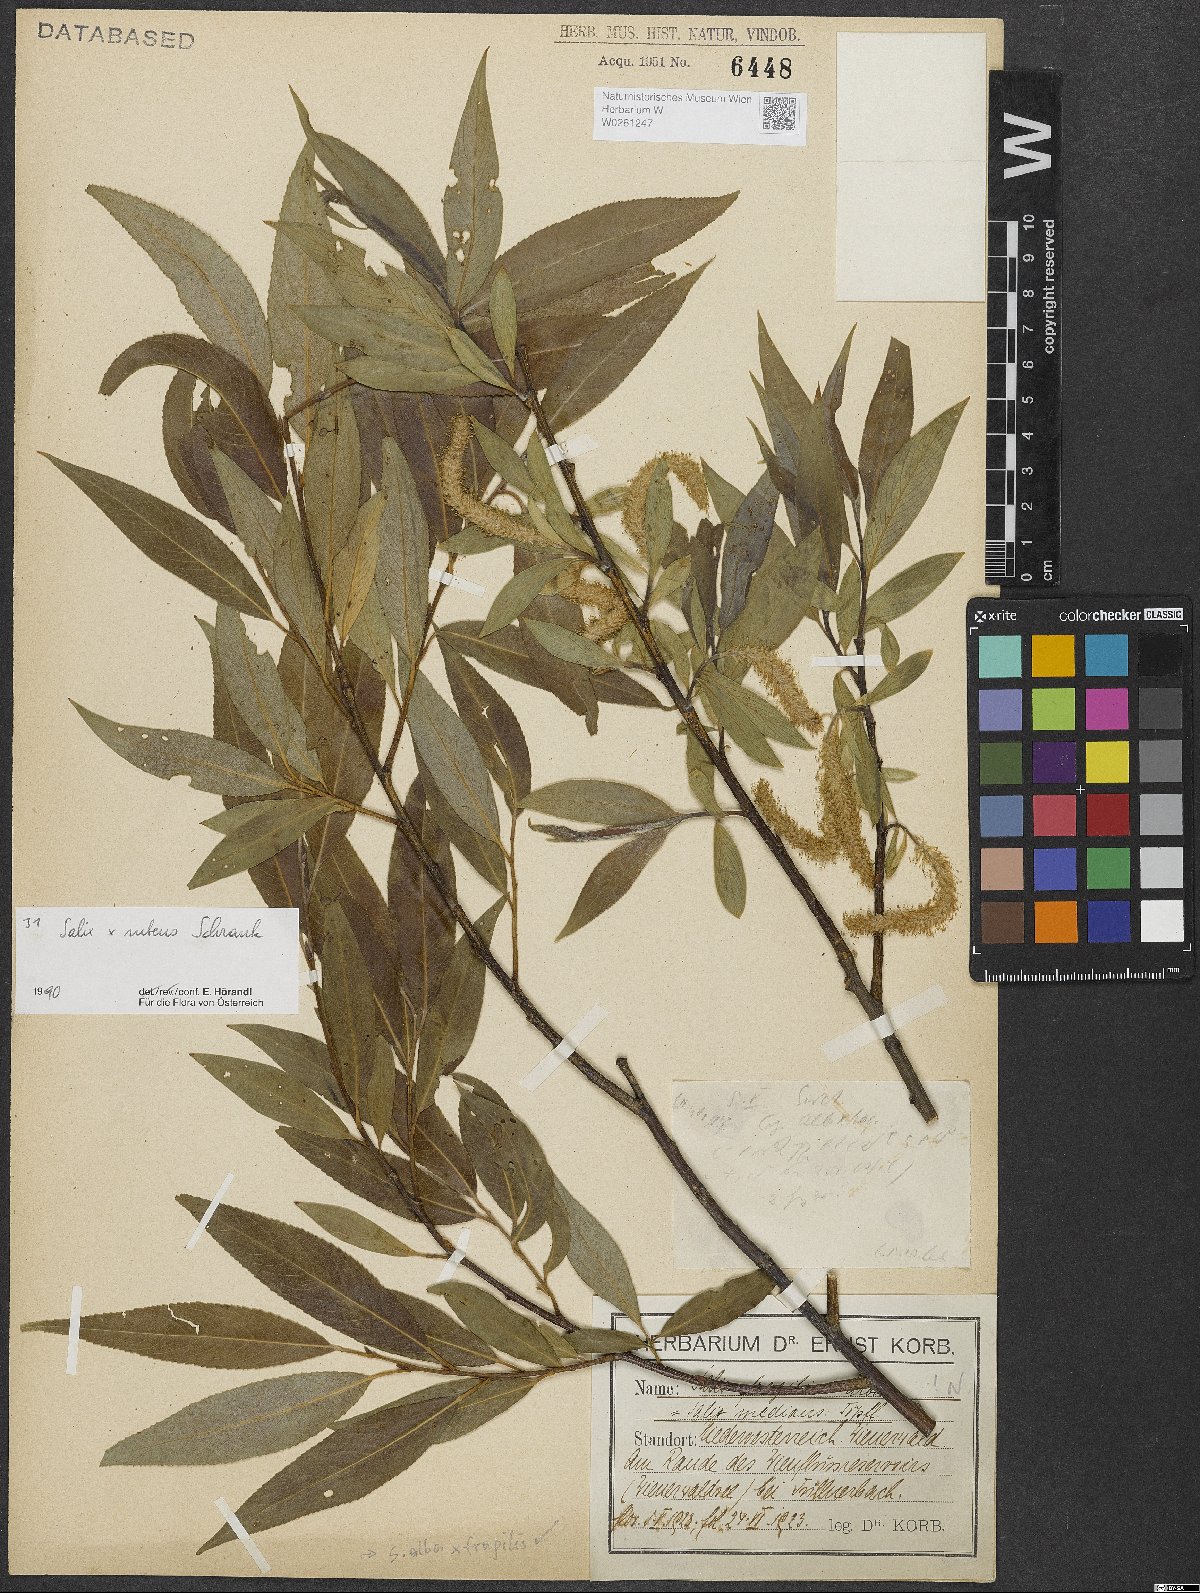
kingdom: Plantae
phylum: Tracheophyta
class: Magnoliopsida
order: Malpighiales
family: Salicaceae
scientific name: Salicaceae
